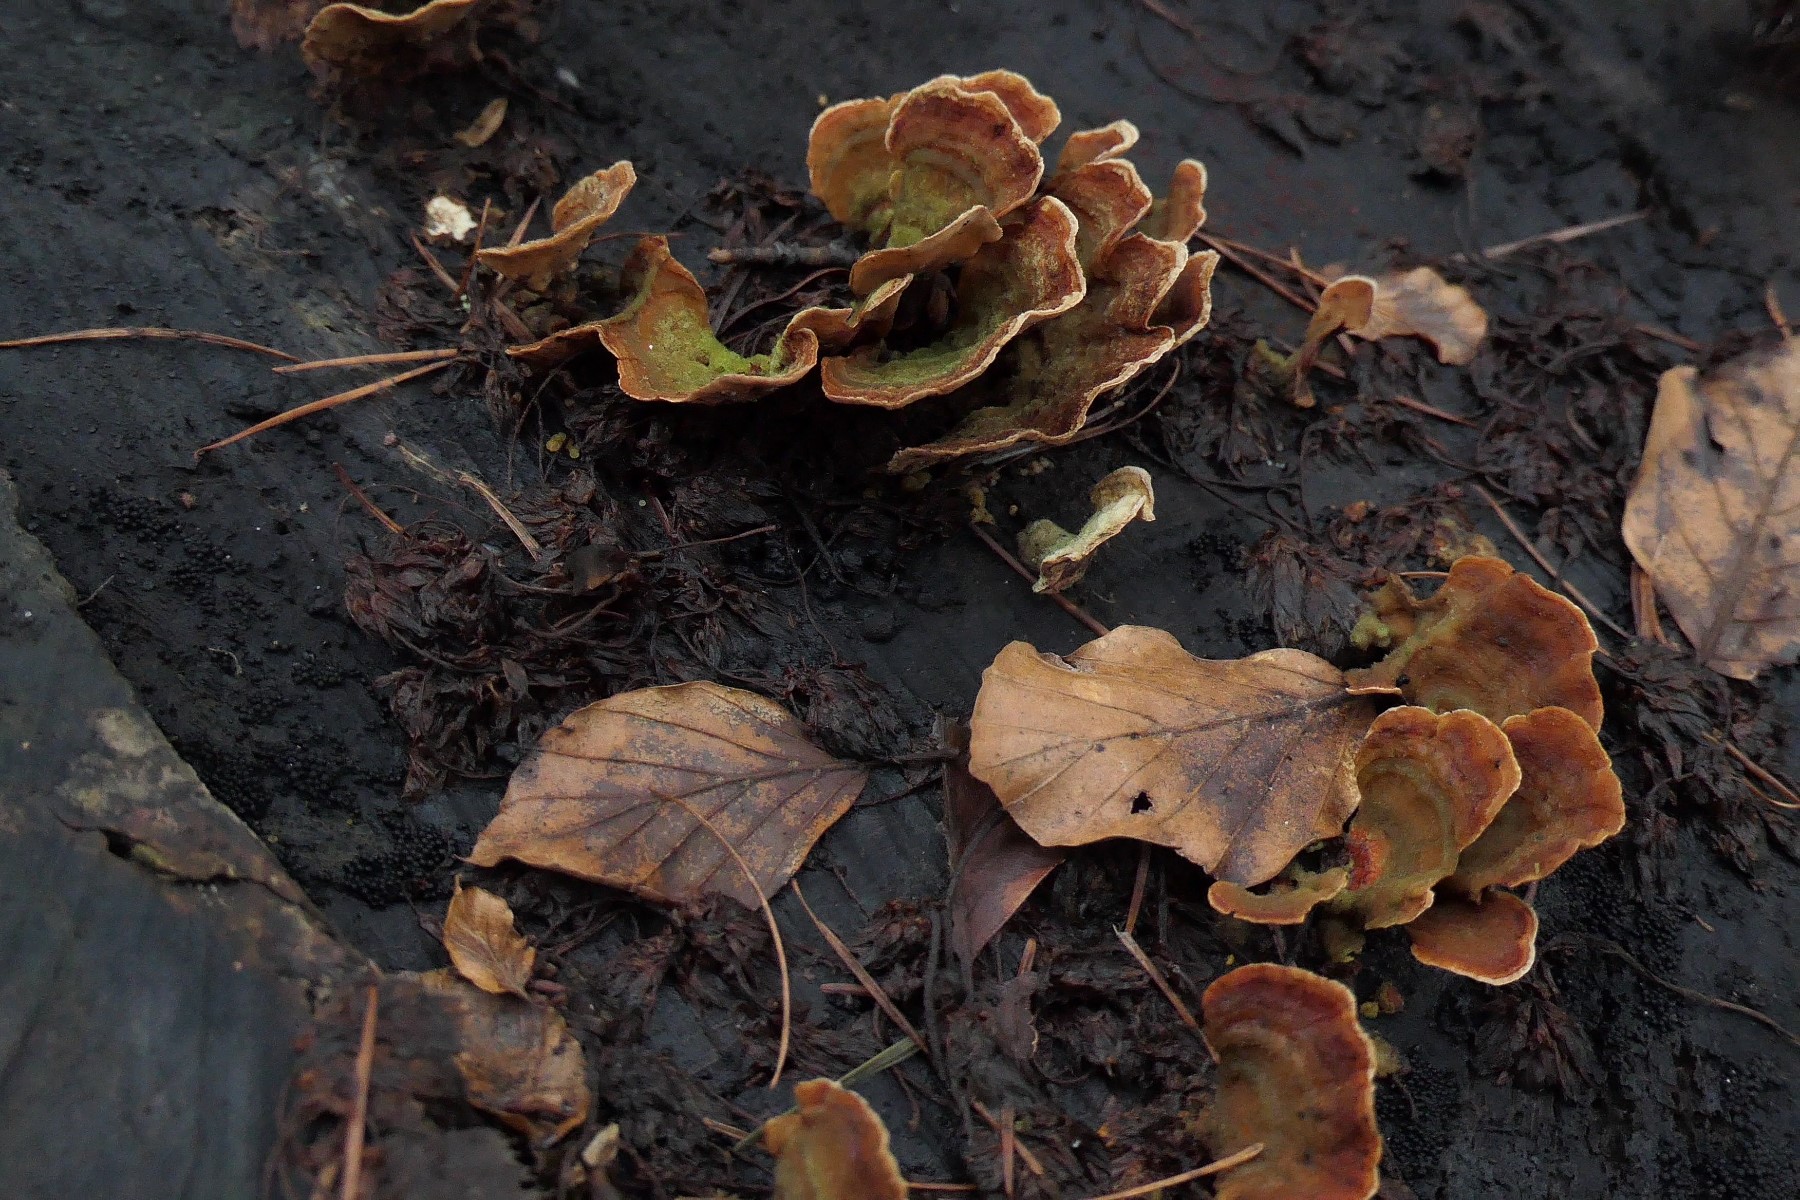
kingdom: Fungi
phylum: Basidiomycota
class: Agaricomycetes
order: Russulales
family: Stereaceae
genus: Stereum
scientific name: Stereum subtomentosum
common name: smuk lædersvamp
